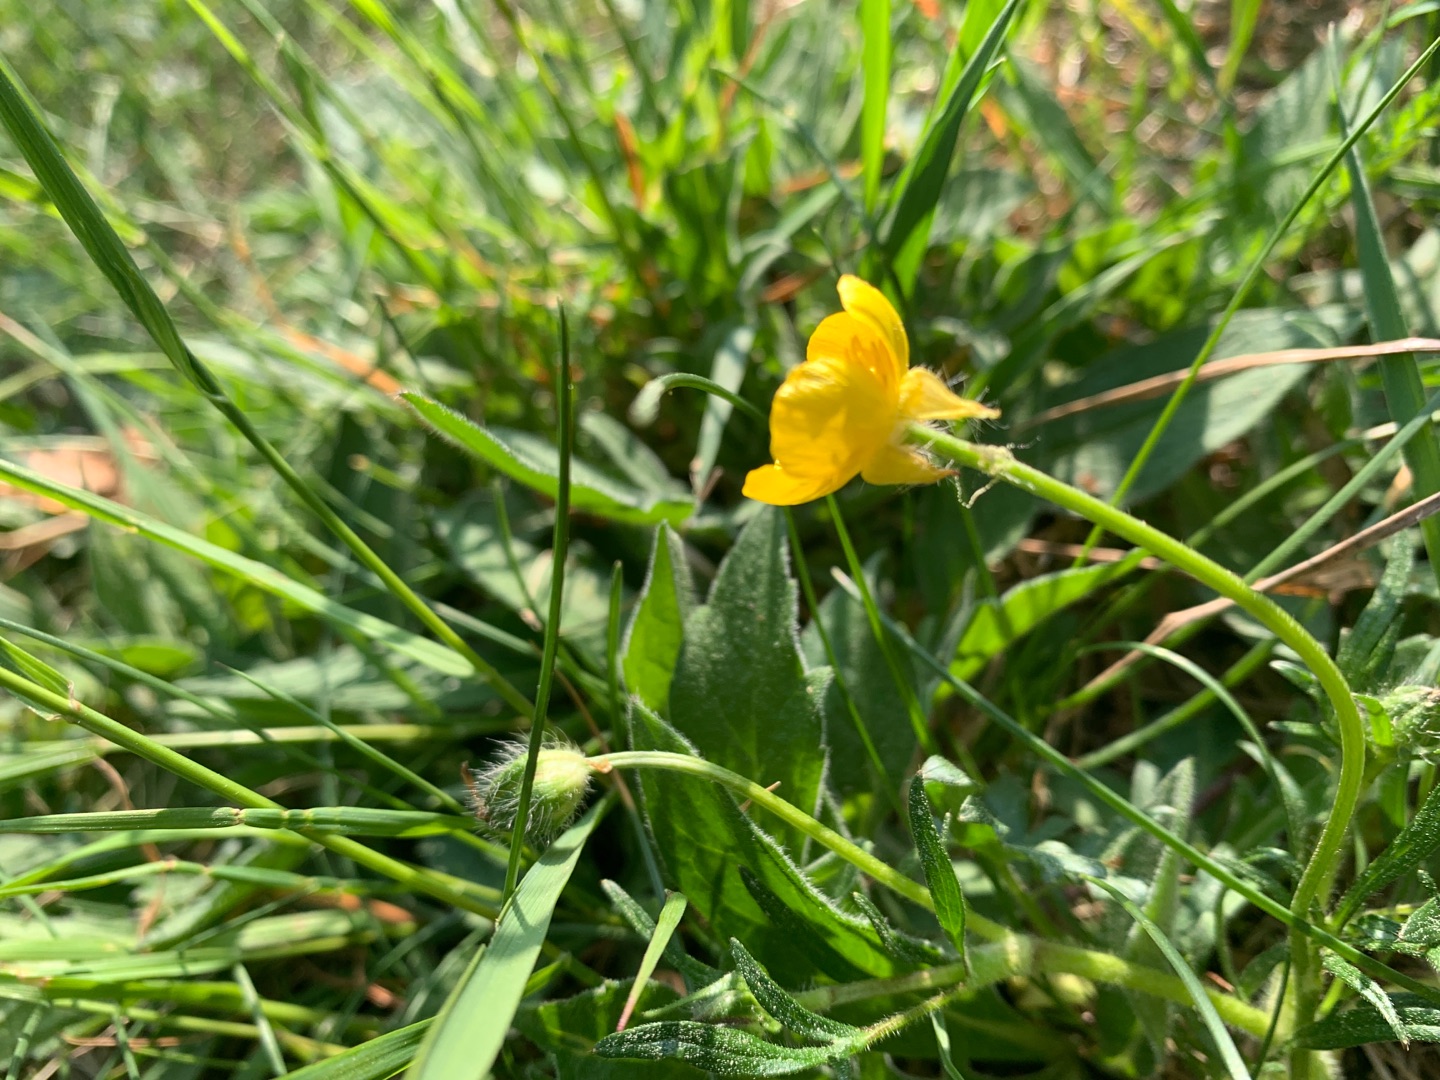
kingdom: Plantae
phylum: Tracheophyta
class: Magnoliopsida
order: Ranunculales
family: Ranunculaceae
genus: Ranunculus
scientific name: Ranunculus bulbosus
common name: Knold-ranunkel
